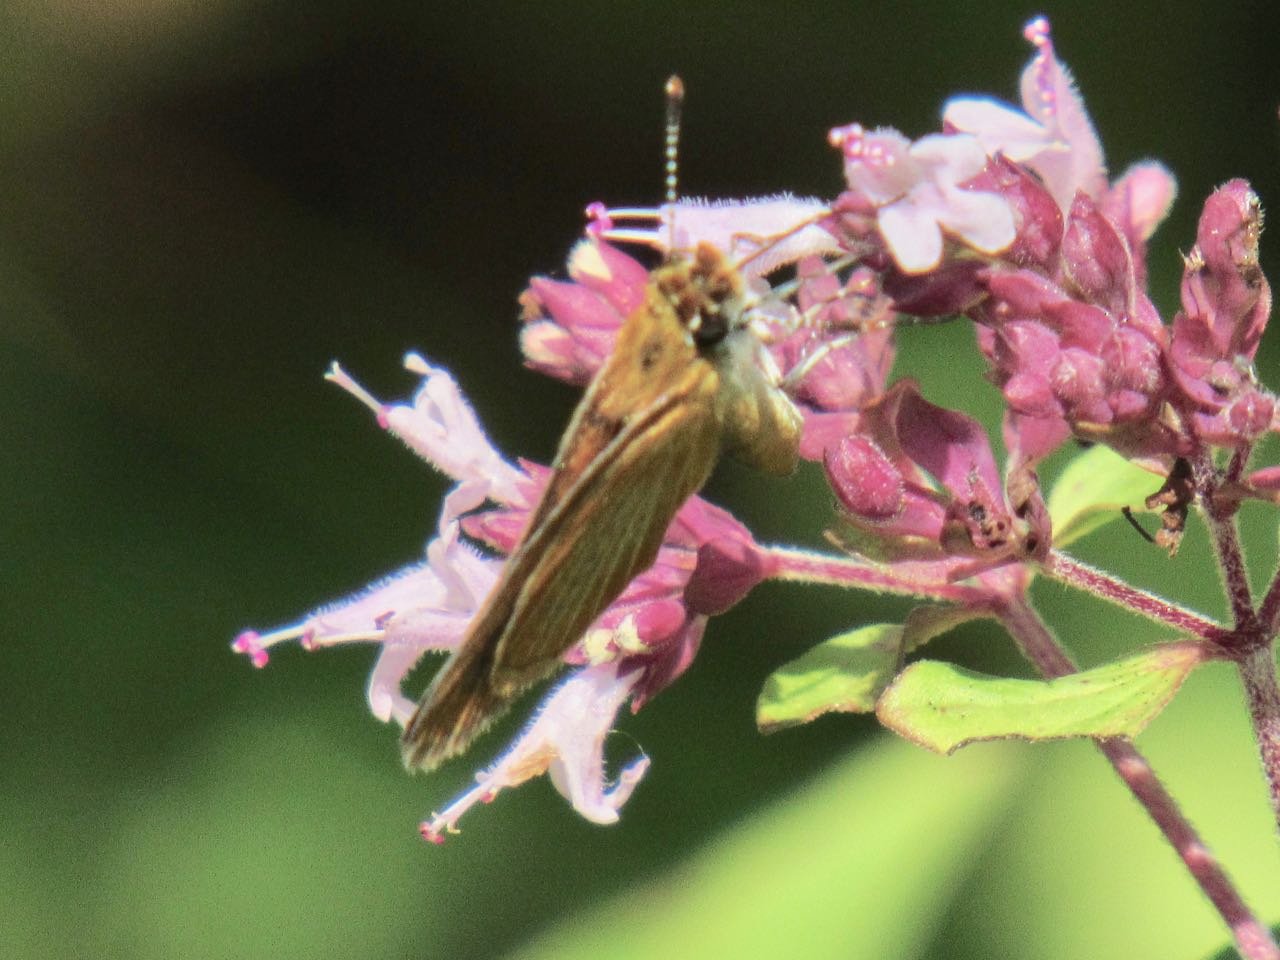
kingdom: Animalia
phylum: Arthropoda
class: Insecta
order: Lepidoptera
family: Hesperiidae
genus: Ancyloxypha
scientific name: Ancyloxypha numitor
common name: Least Skipper
